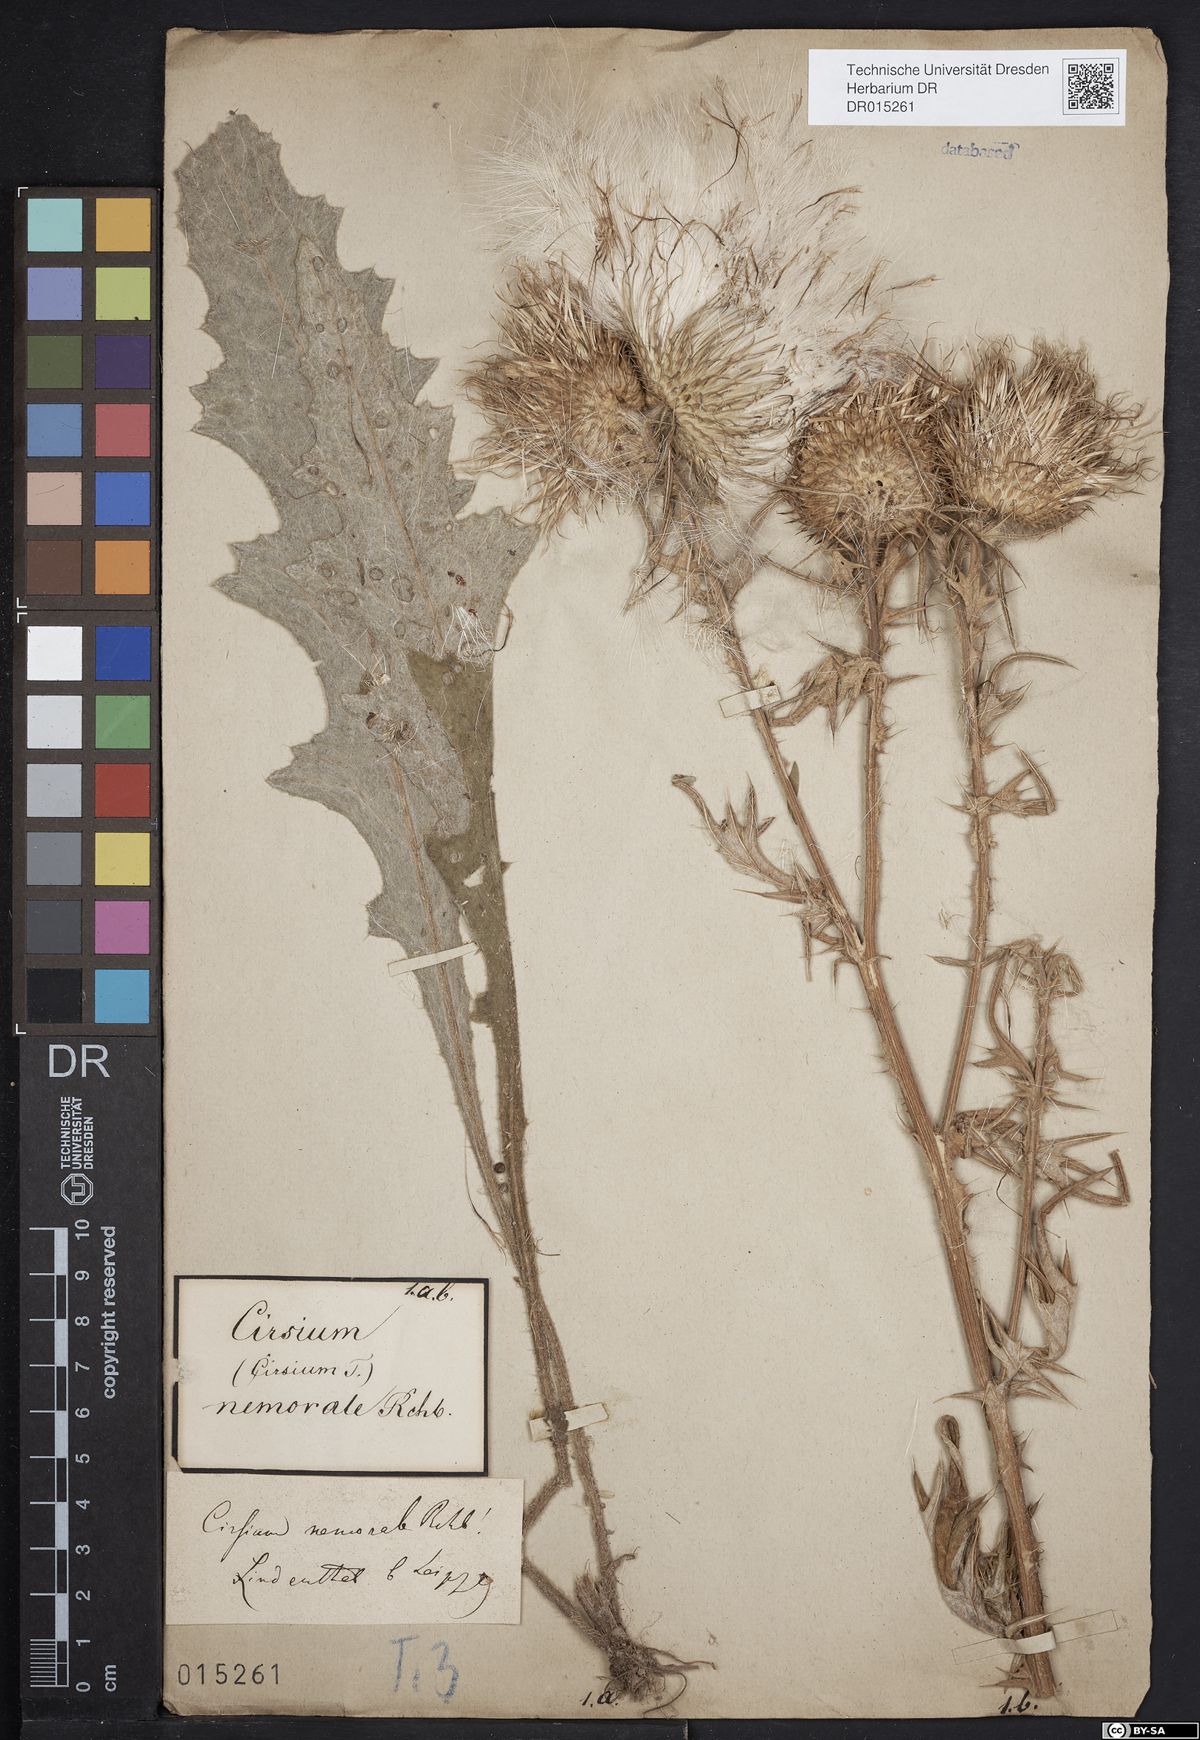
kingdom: Plantae
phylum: Tracheophyta
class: Magnoliopsida
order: Asterales
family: Asteraceae
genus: Cirsium
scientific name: Cirsium vulgare
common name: Bull thistle
